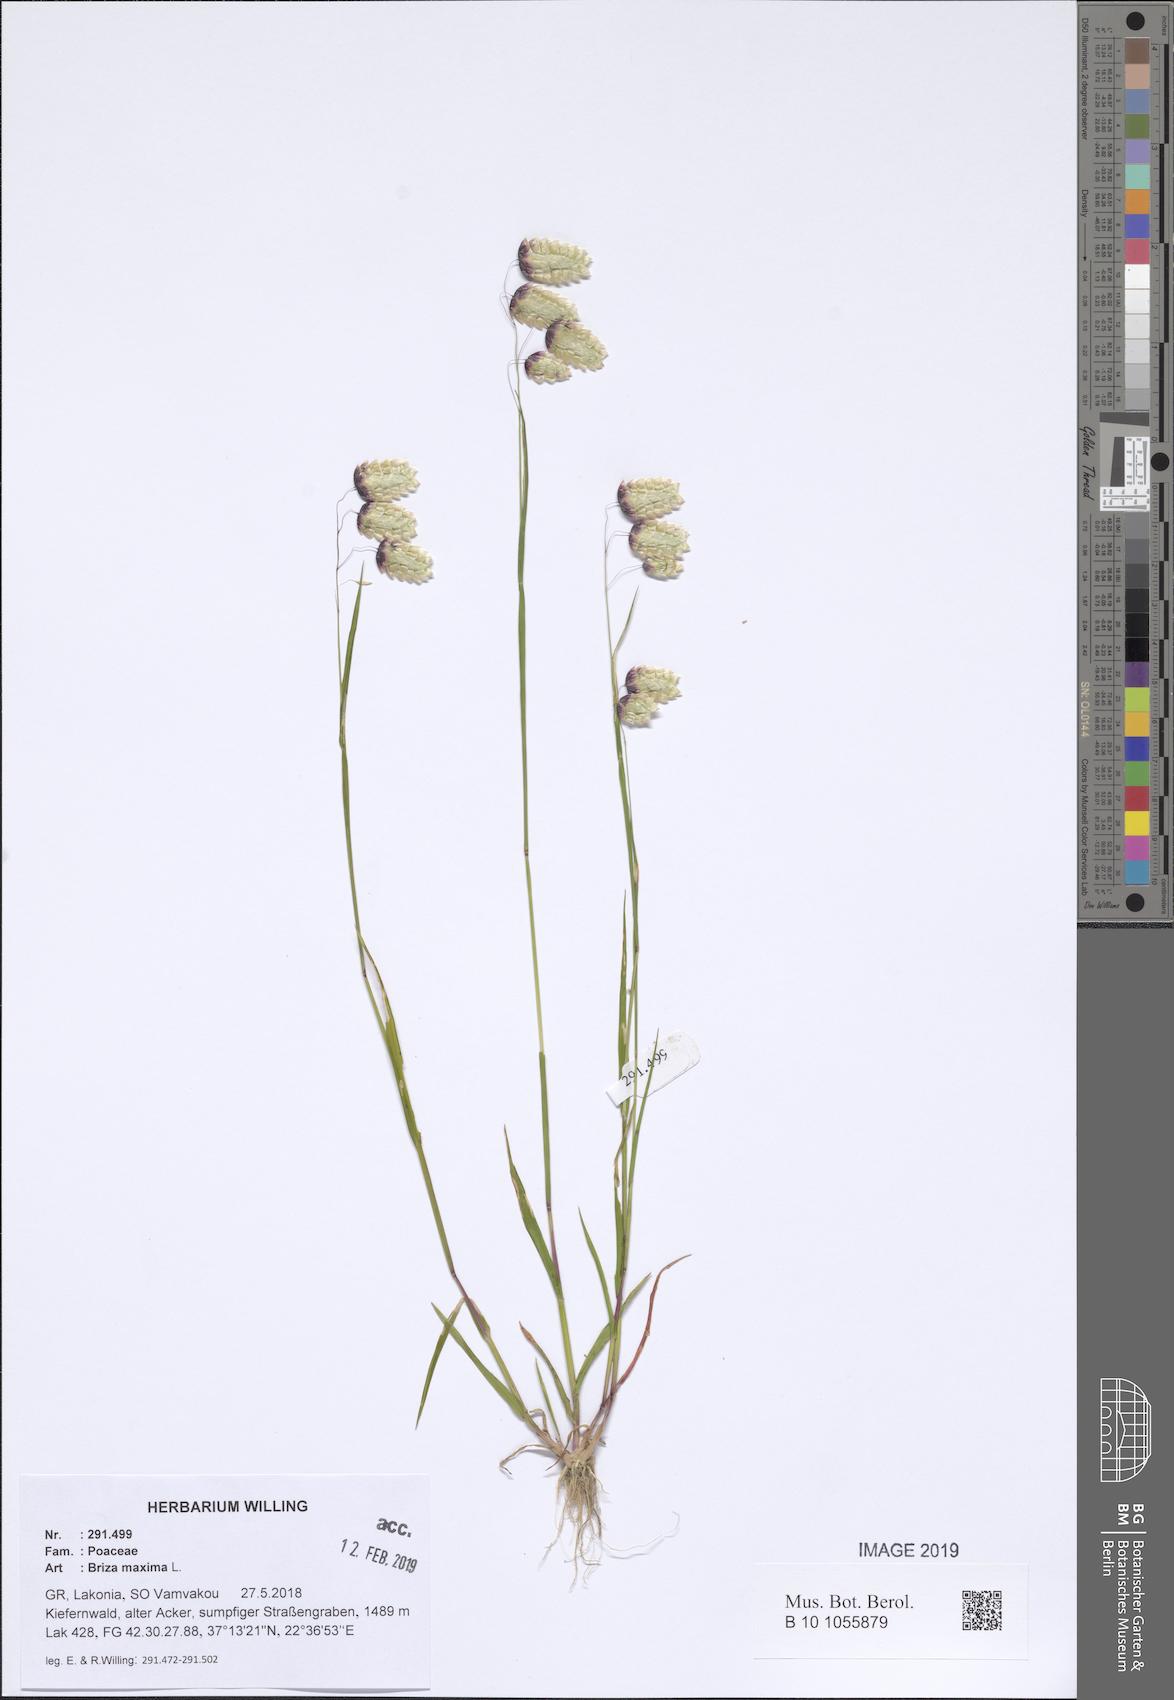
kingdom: Plantae
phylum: Tracheophyta
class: Liliopsida
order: Poales
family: Poaceae
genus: Briza
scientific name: Briza maxima
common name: Big quakinggrass
